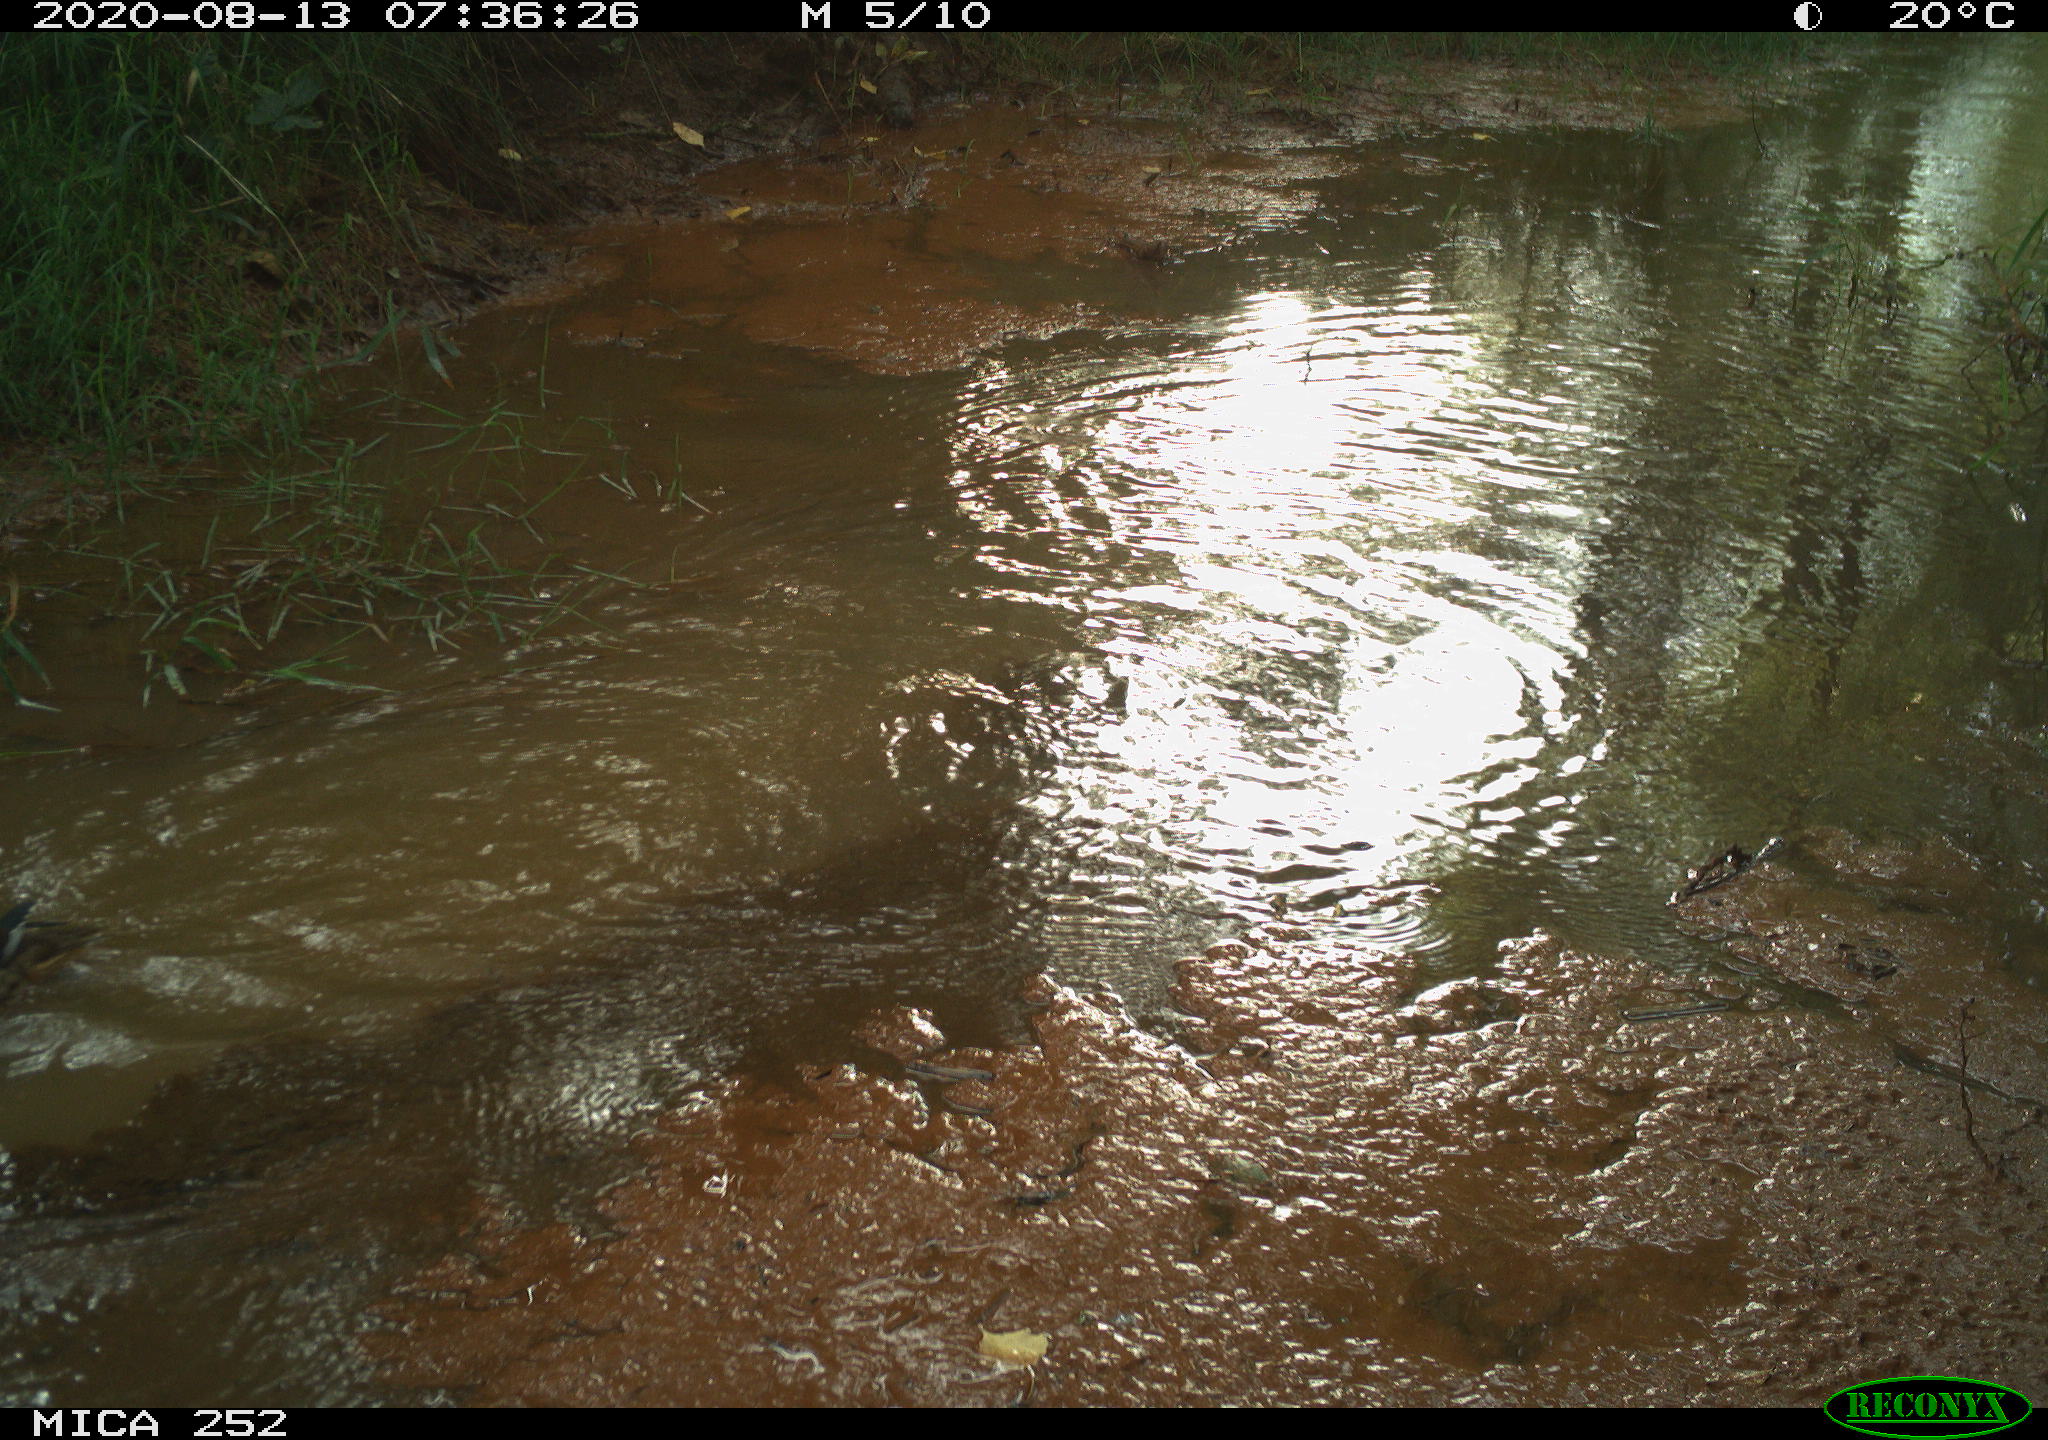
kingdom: Animalia
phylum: Chordata
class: Aves
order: Anseriformes
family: Anatidae
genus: Aix
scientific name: Aix galericulata
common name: Mandarin duck
